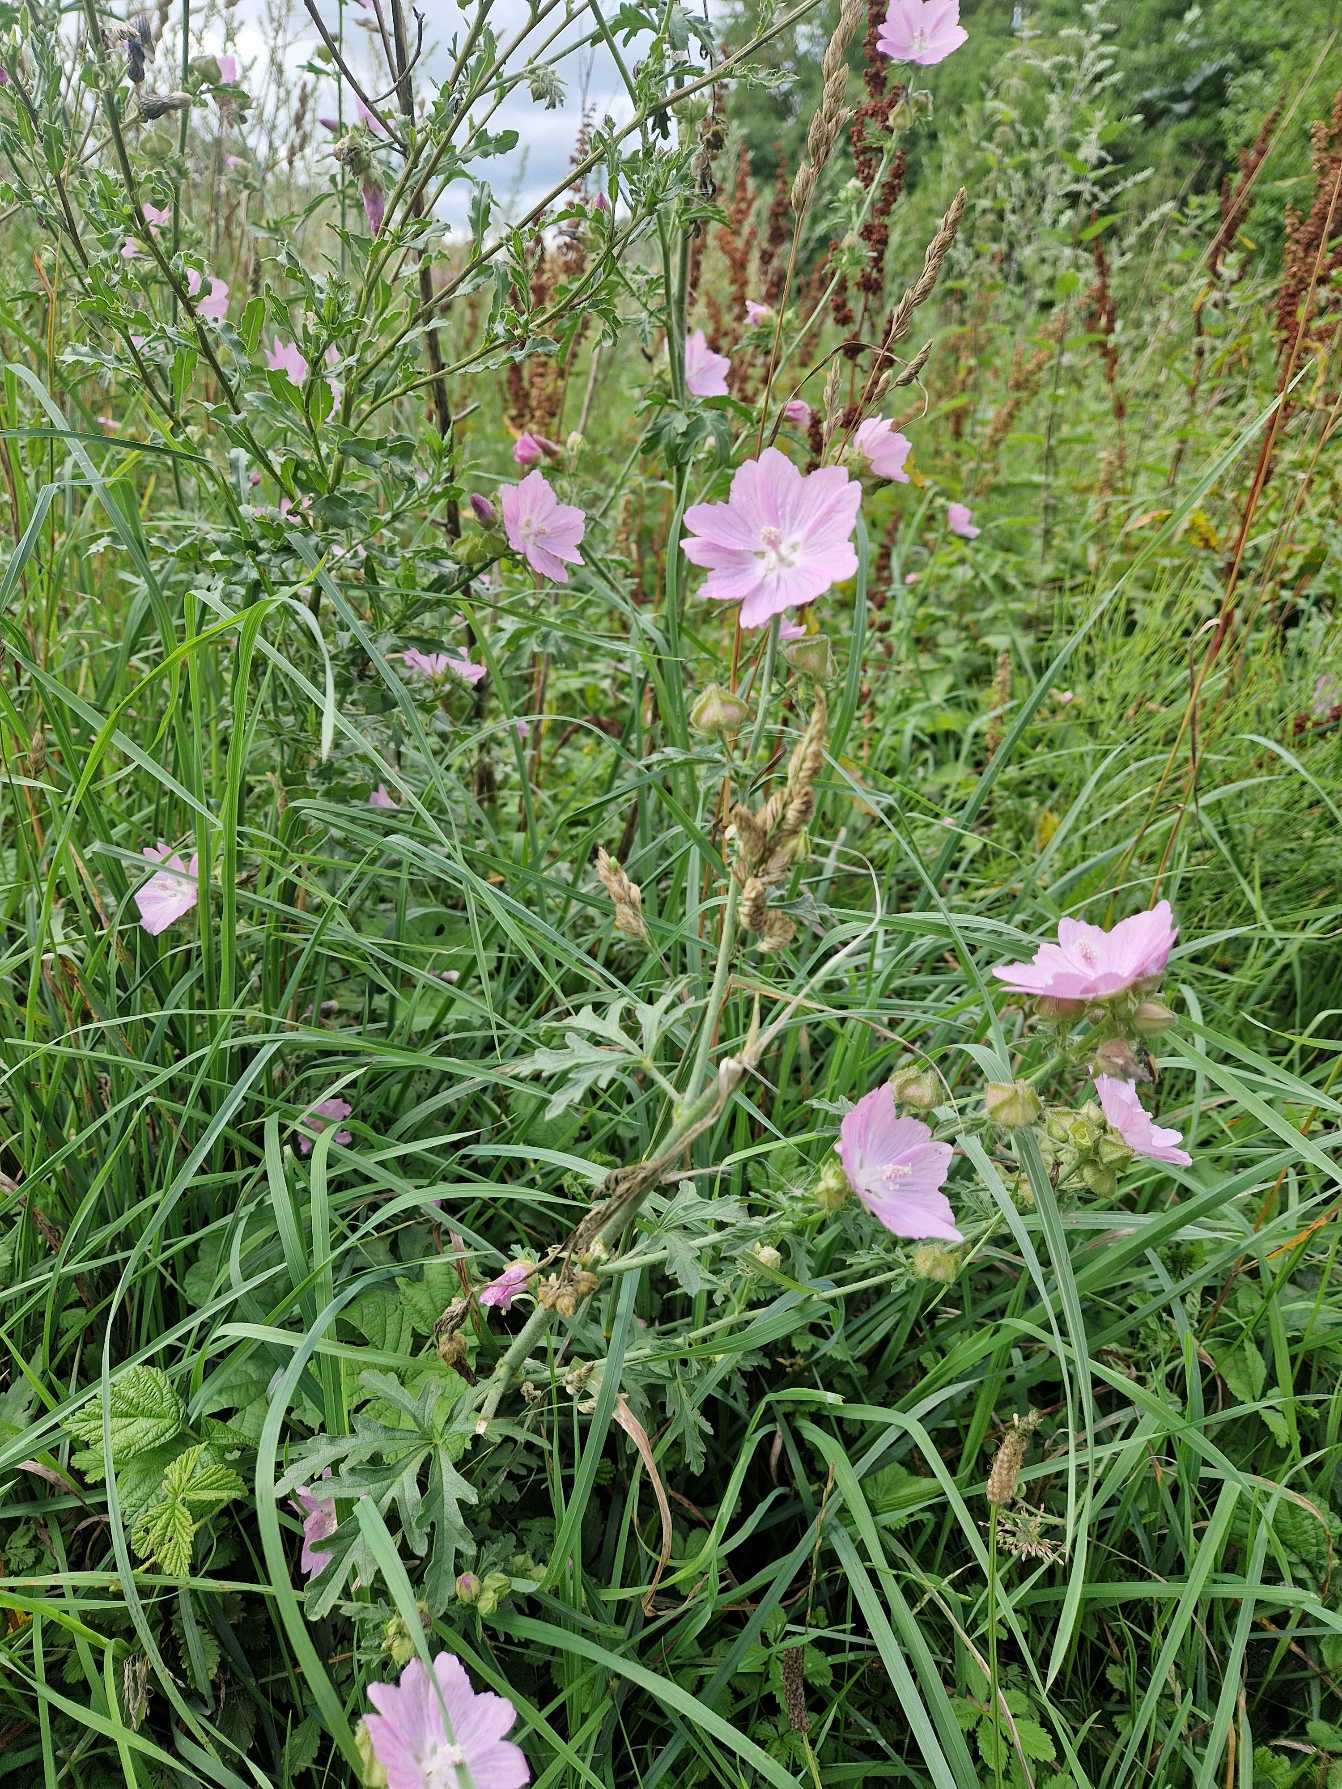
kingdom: Plantae
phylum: Tracheophyta
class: Magnoliopsida
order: Malvales
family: Malvaceae
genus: Malva
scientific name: Malva alcea
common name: Rosen-katost
